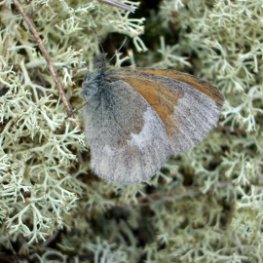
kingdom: Animalia
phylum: Arthropoda
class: Insecta
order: Lepidoptera
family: Nymphalidae
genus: Coenonympha
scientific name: Coenonympha tullia
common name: Large Heath
